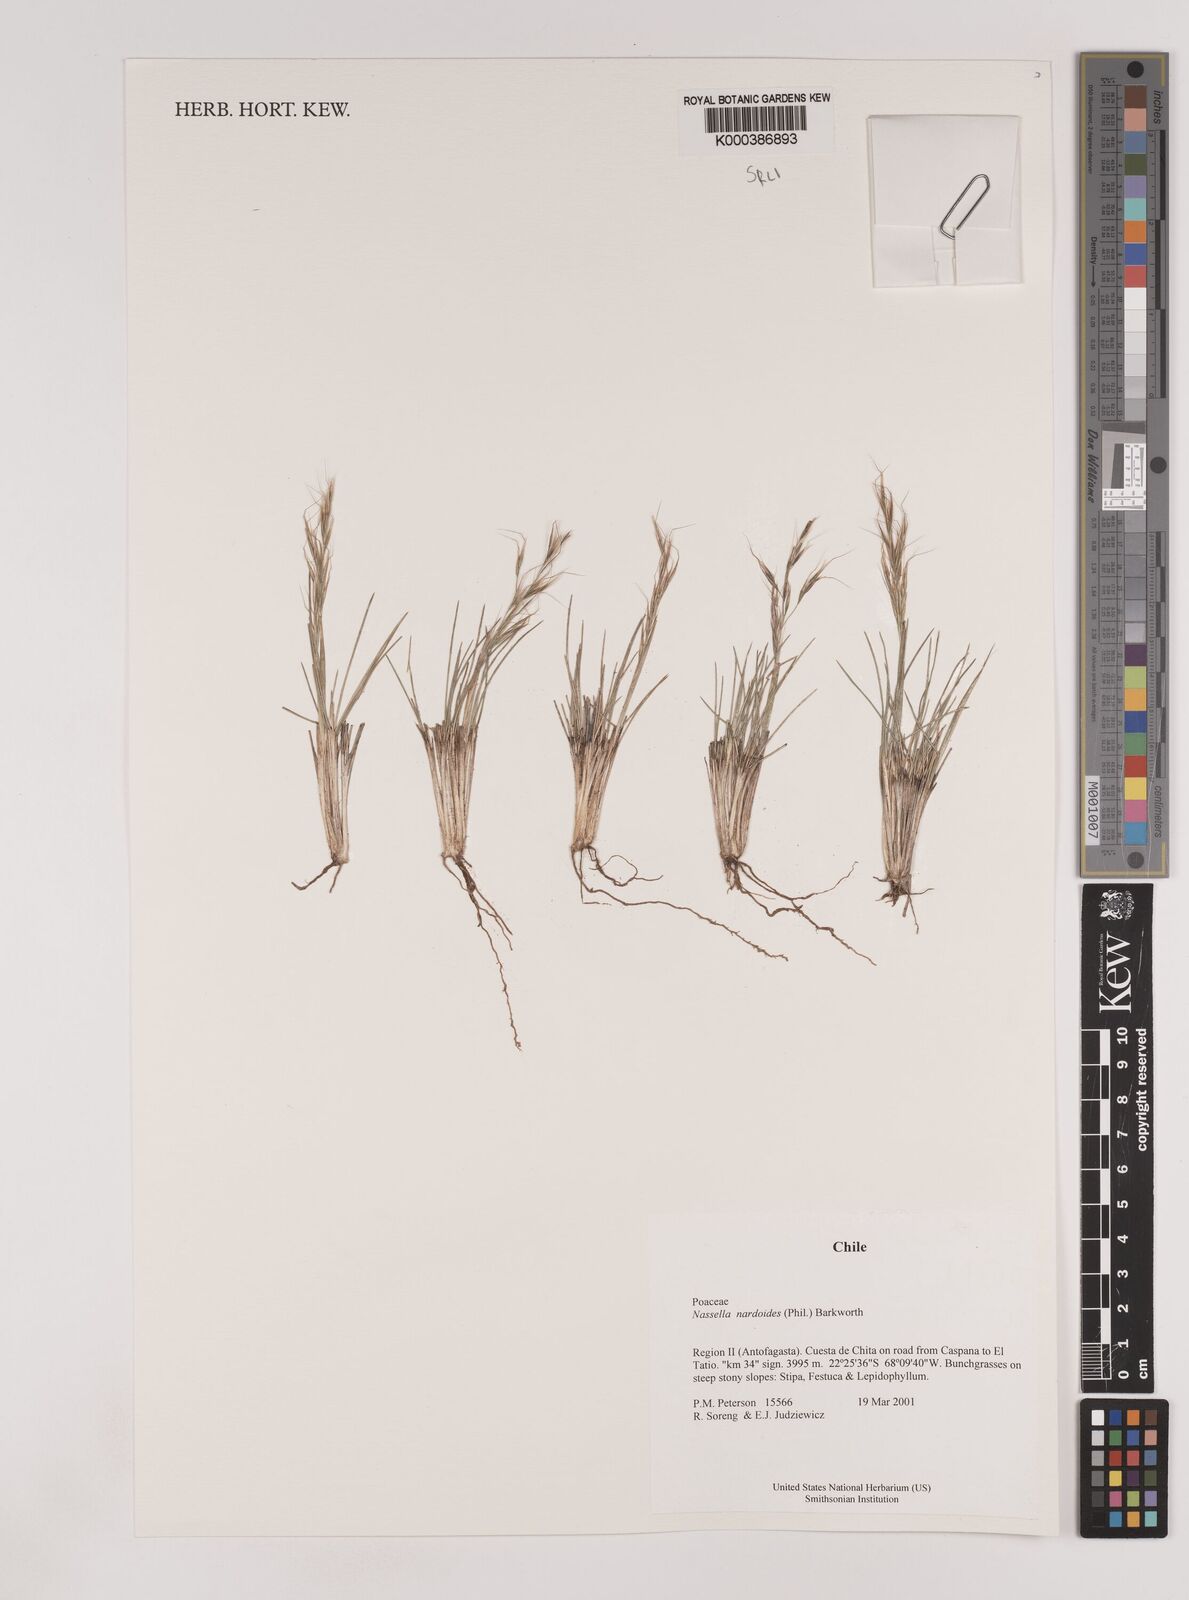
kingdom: Plantae
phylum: Tracheophyta
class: Liliopsida
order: Poales
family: Poaceae
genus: Nassella
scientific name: Nassella nardoides
